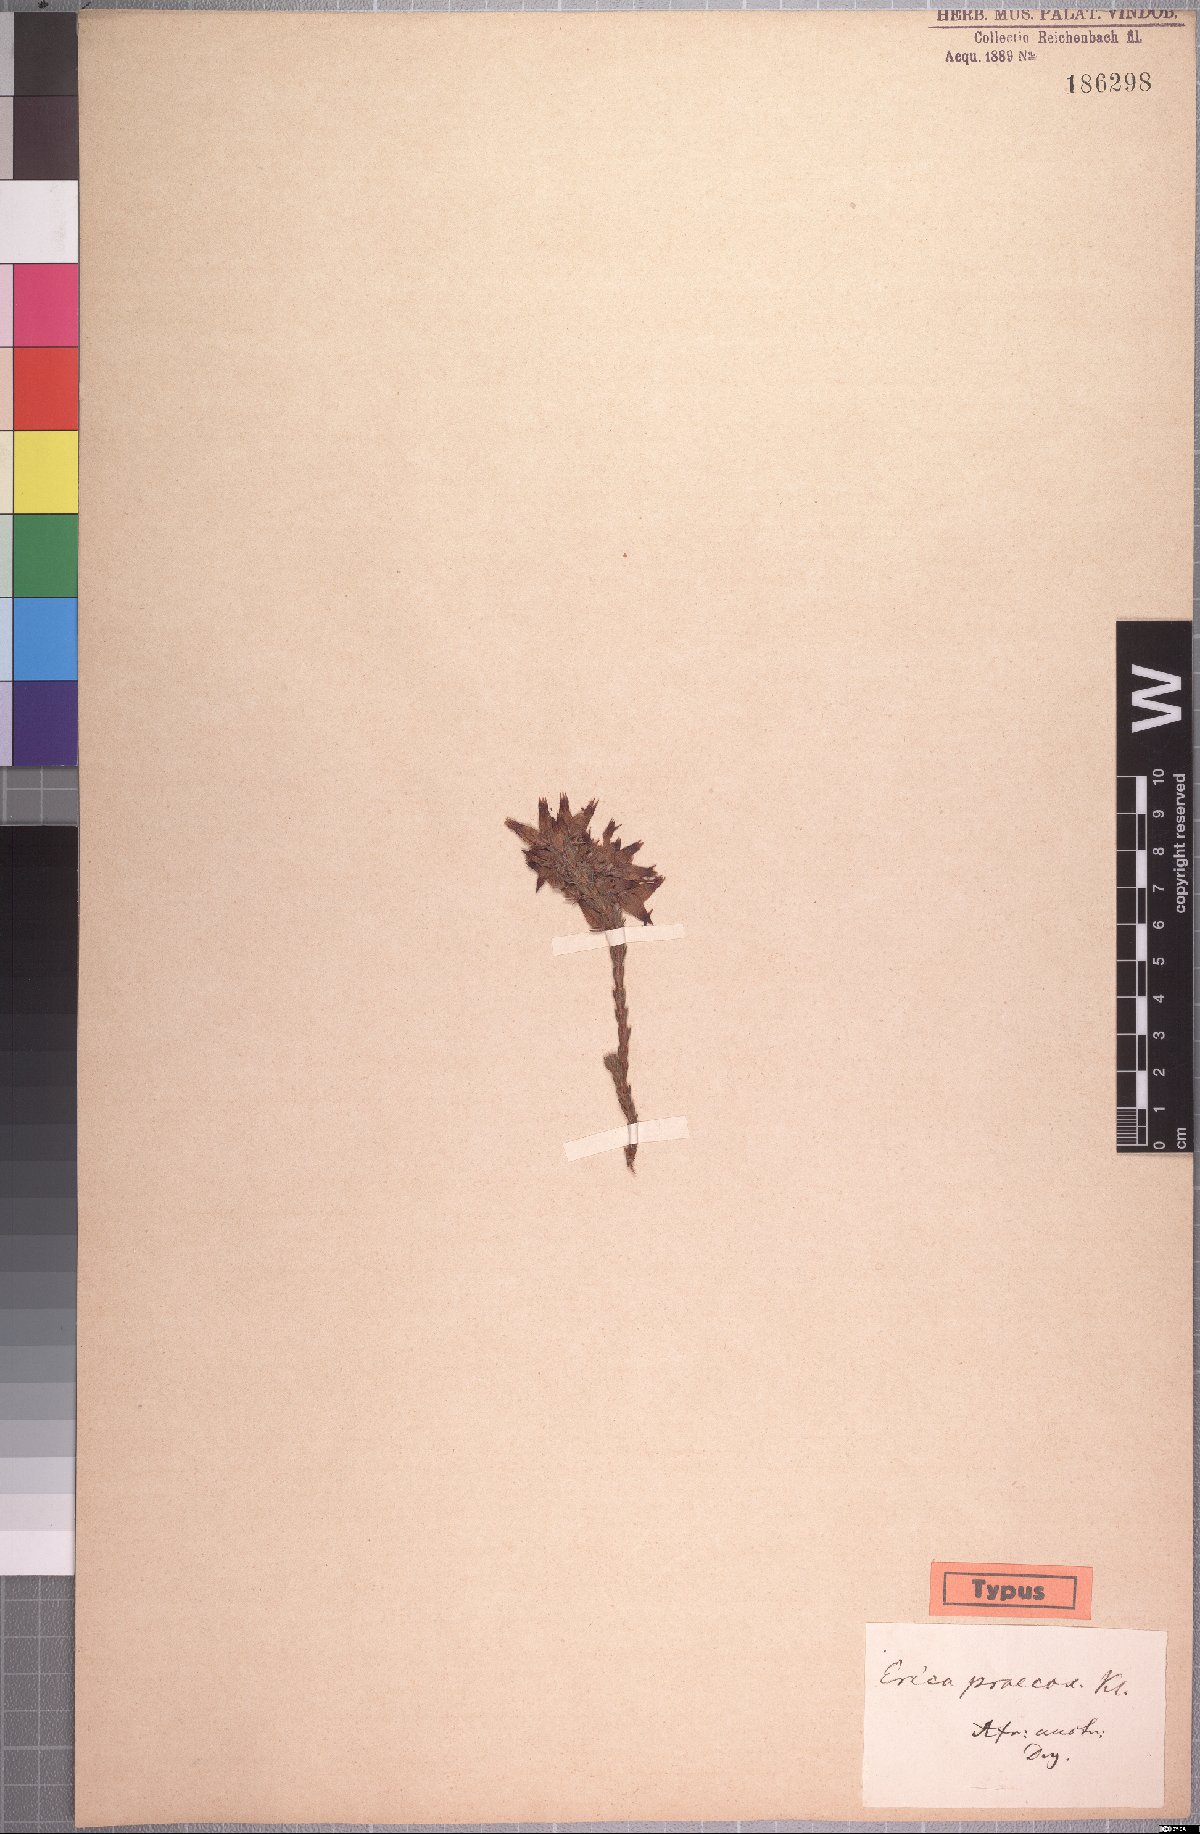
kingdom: Plantae
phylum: Tracheophyta
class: Magnoliopsida
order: Ericales
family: Ericaceae
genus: Erica
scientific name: Erica ventricosa
